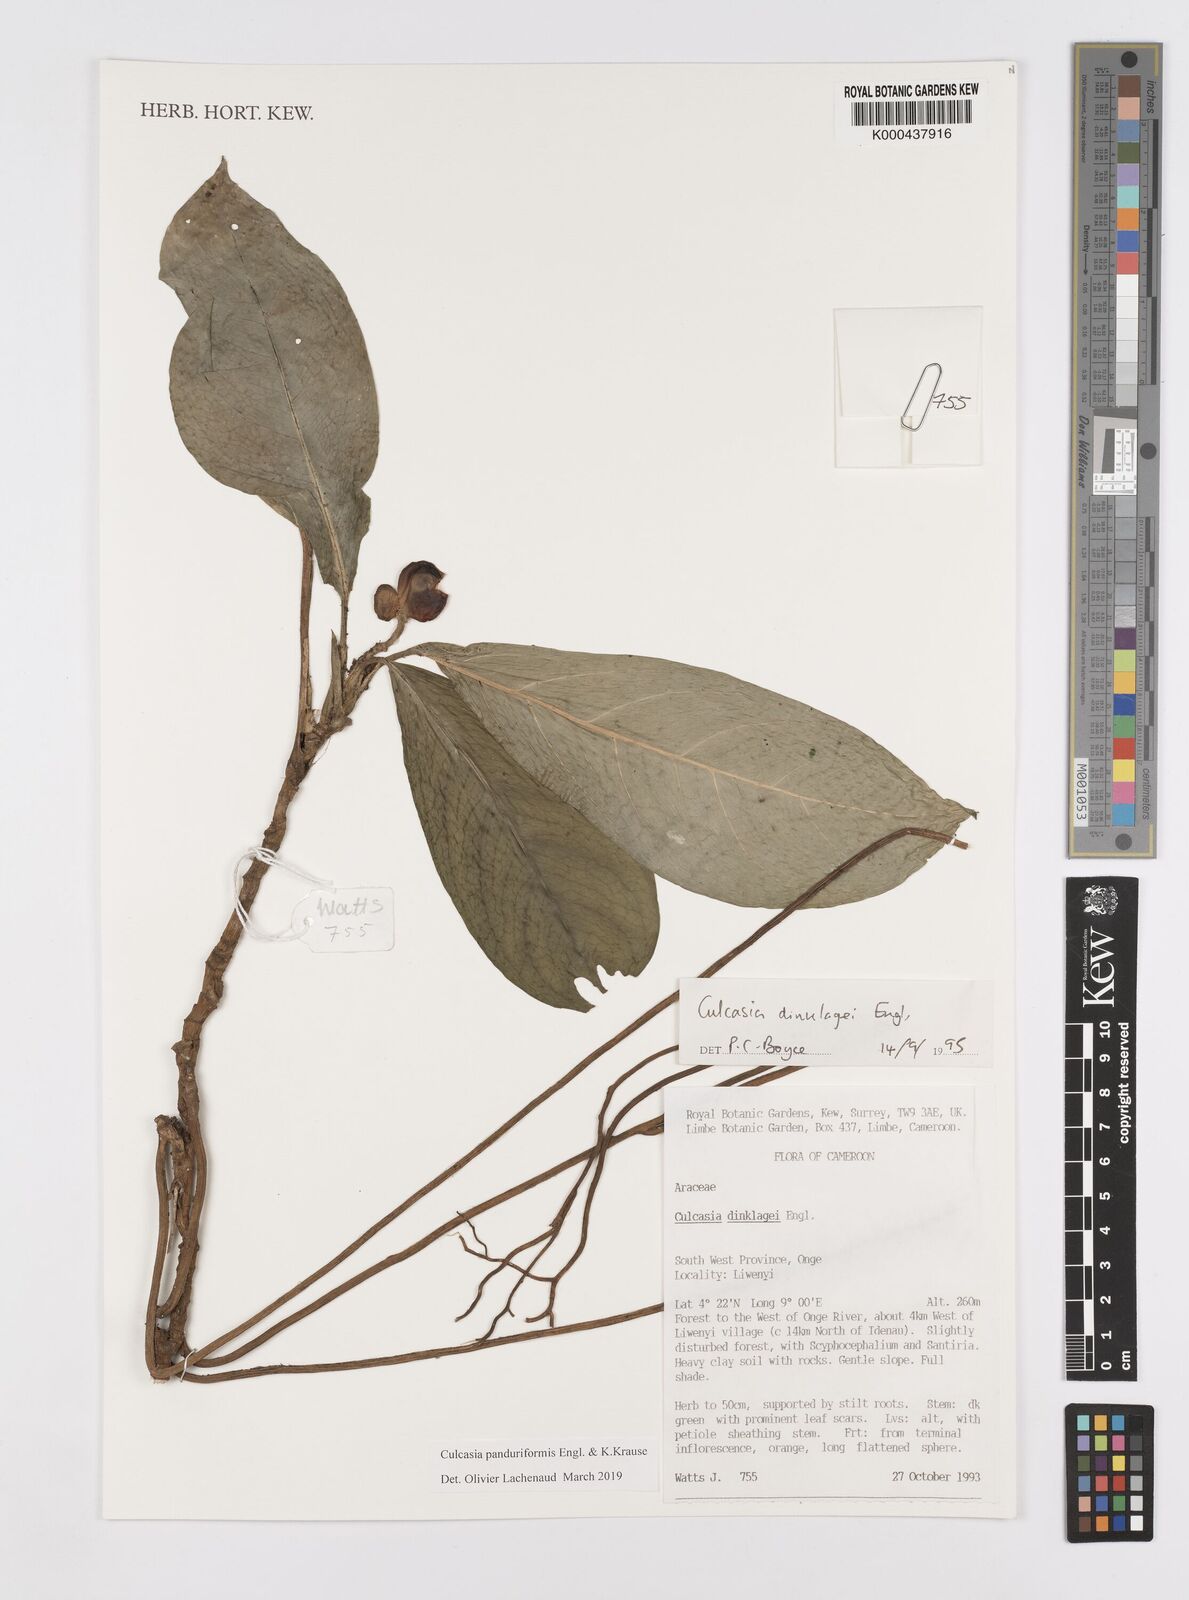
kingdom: Plantae
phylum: Tracheophyta
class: Liliopsida
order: Alismatales
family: Araceae
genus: Culcasia
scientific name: Culcasia panduriformis
